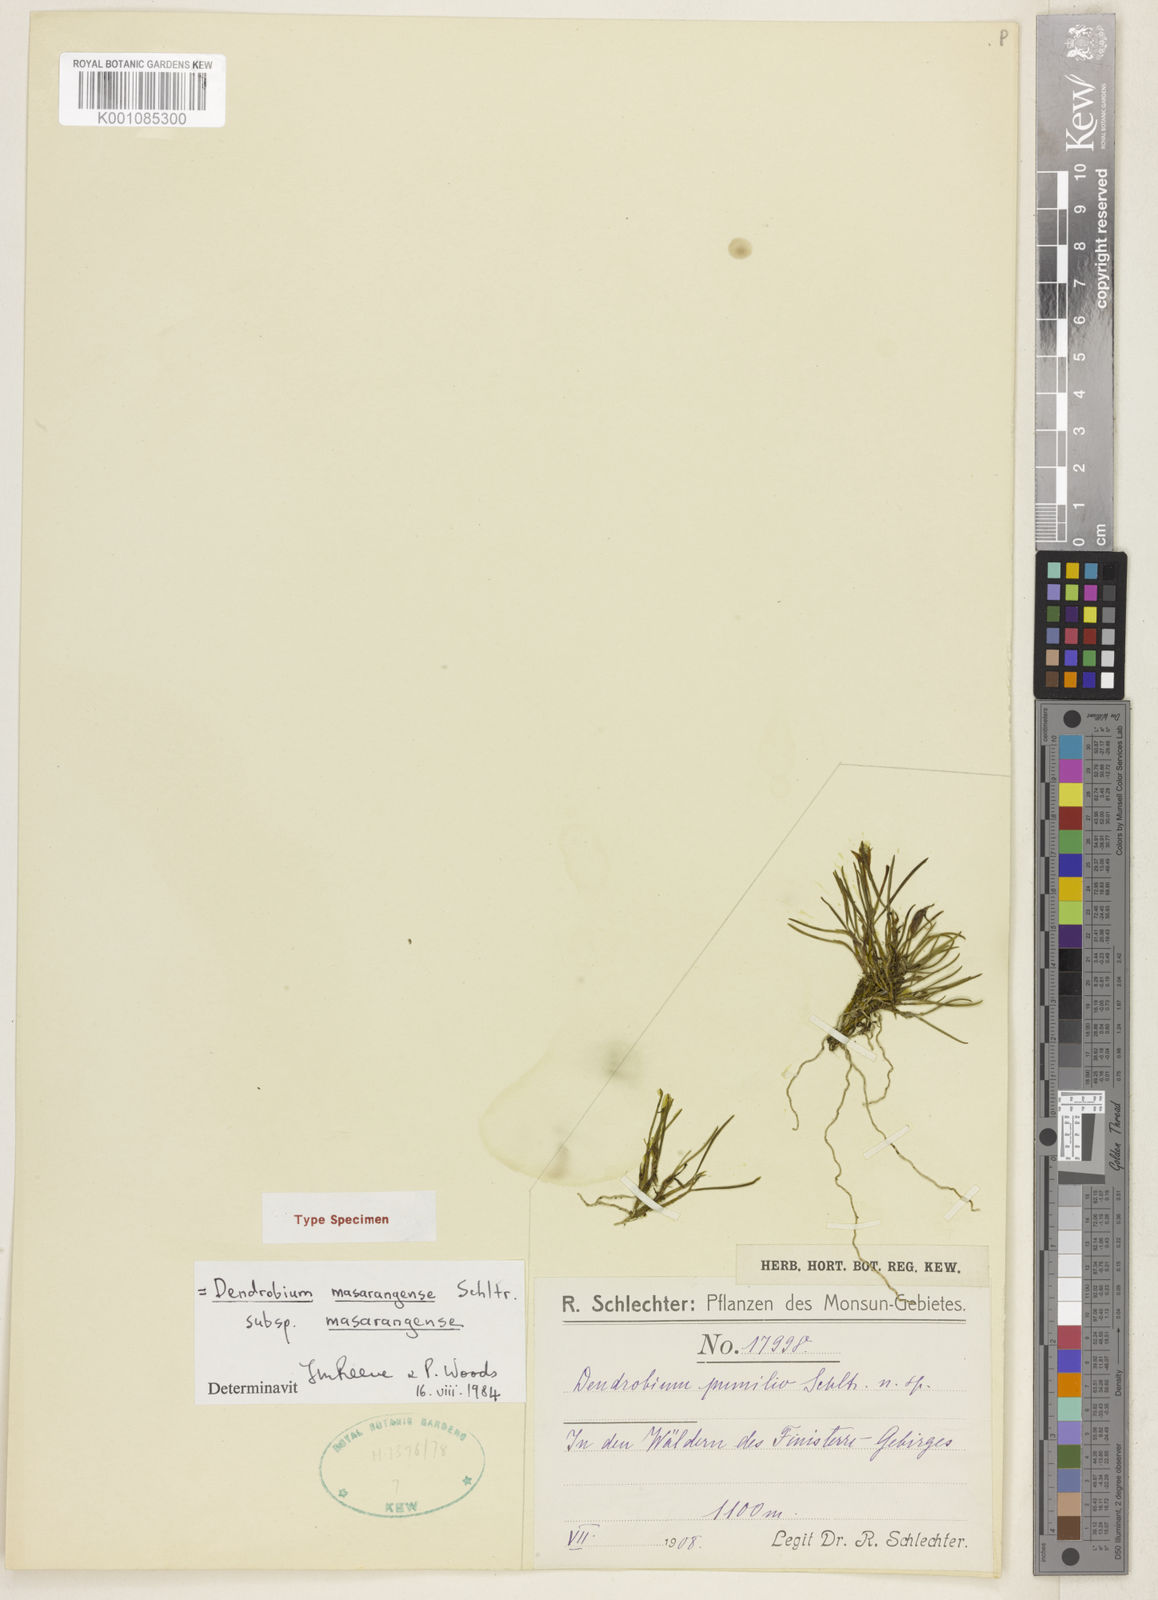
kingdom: Plantae
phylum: Tracheophyta
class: Liliopsida
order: Asparagales
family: Orchidaceae
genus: Dendrobium
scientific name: Dendrobium masarangense
